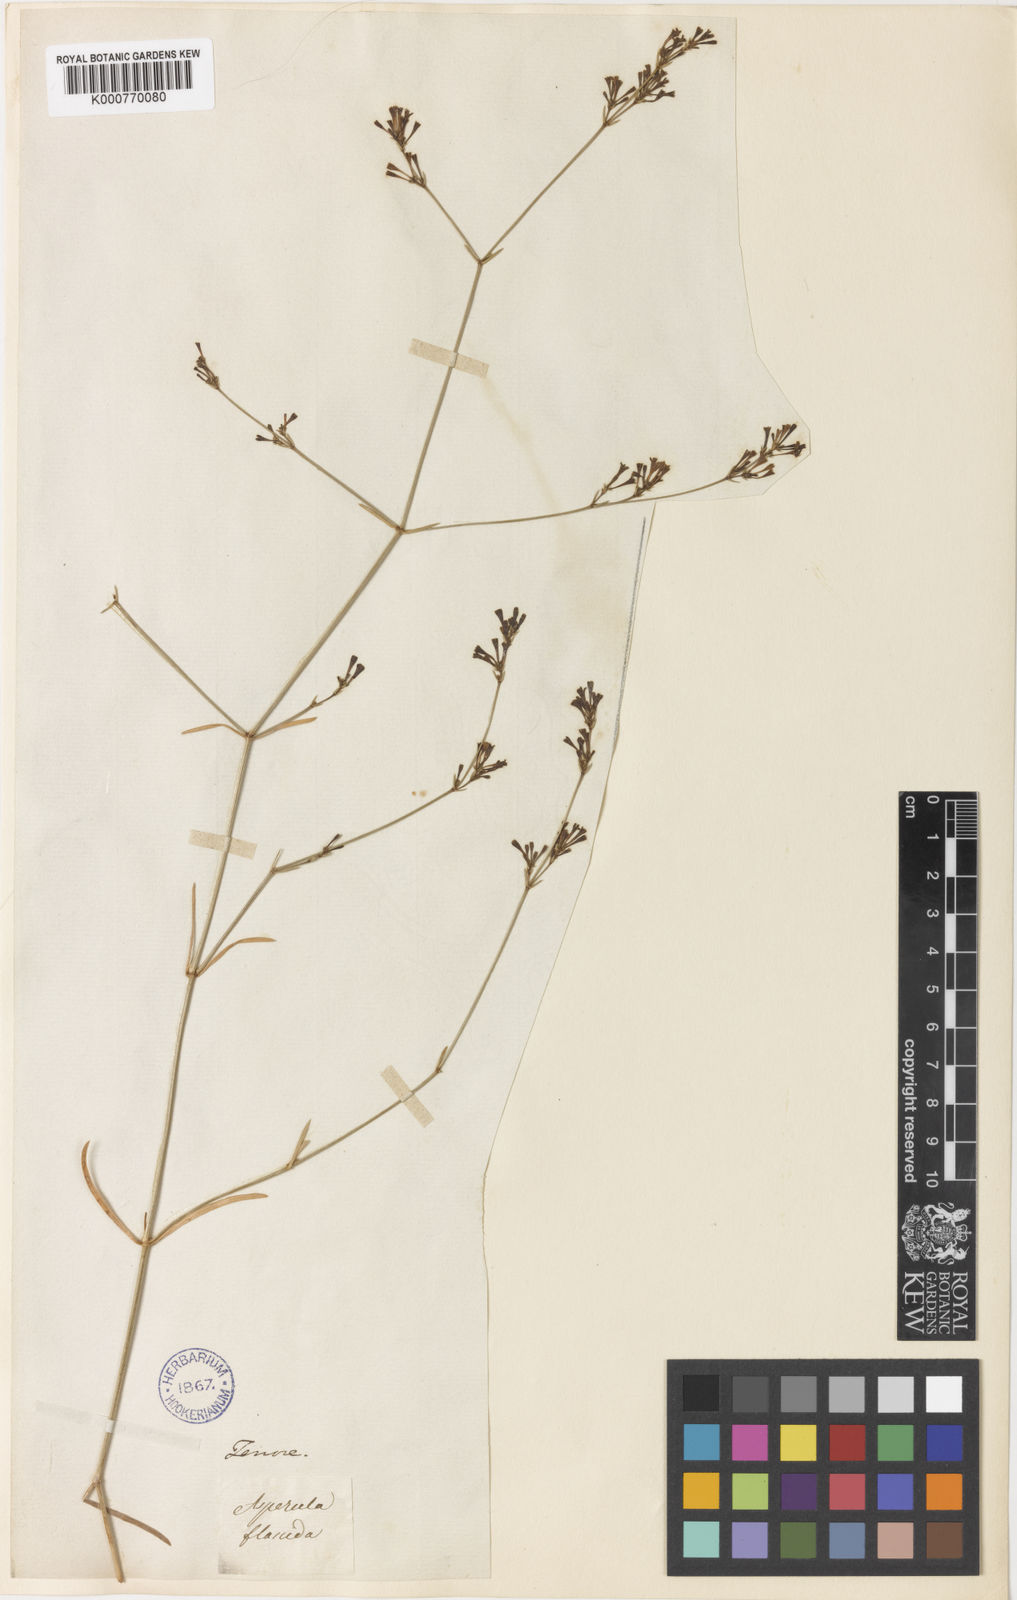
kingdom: Plantae
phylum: Tracheophyta
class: Magnoliopsida
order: Gentianales
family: Rubiaceae
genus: Cynanchica
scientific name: Cynanchica aristata
